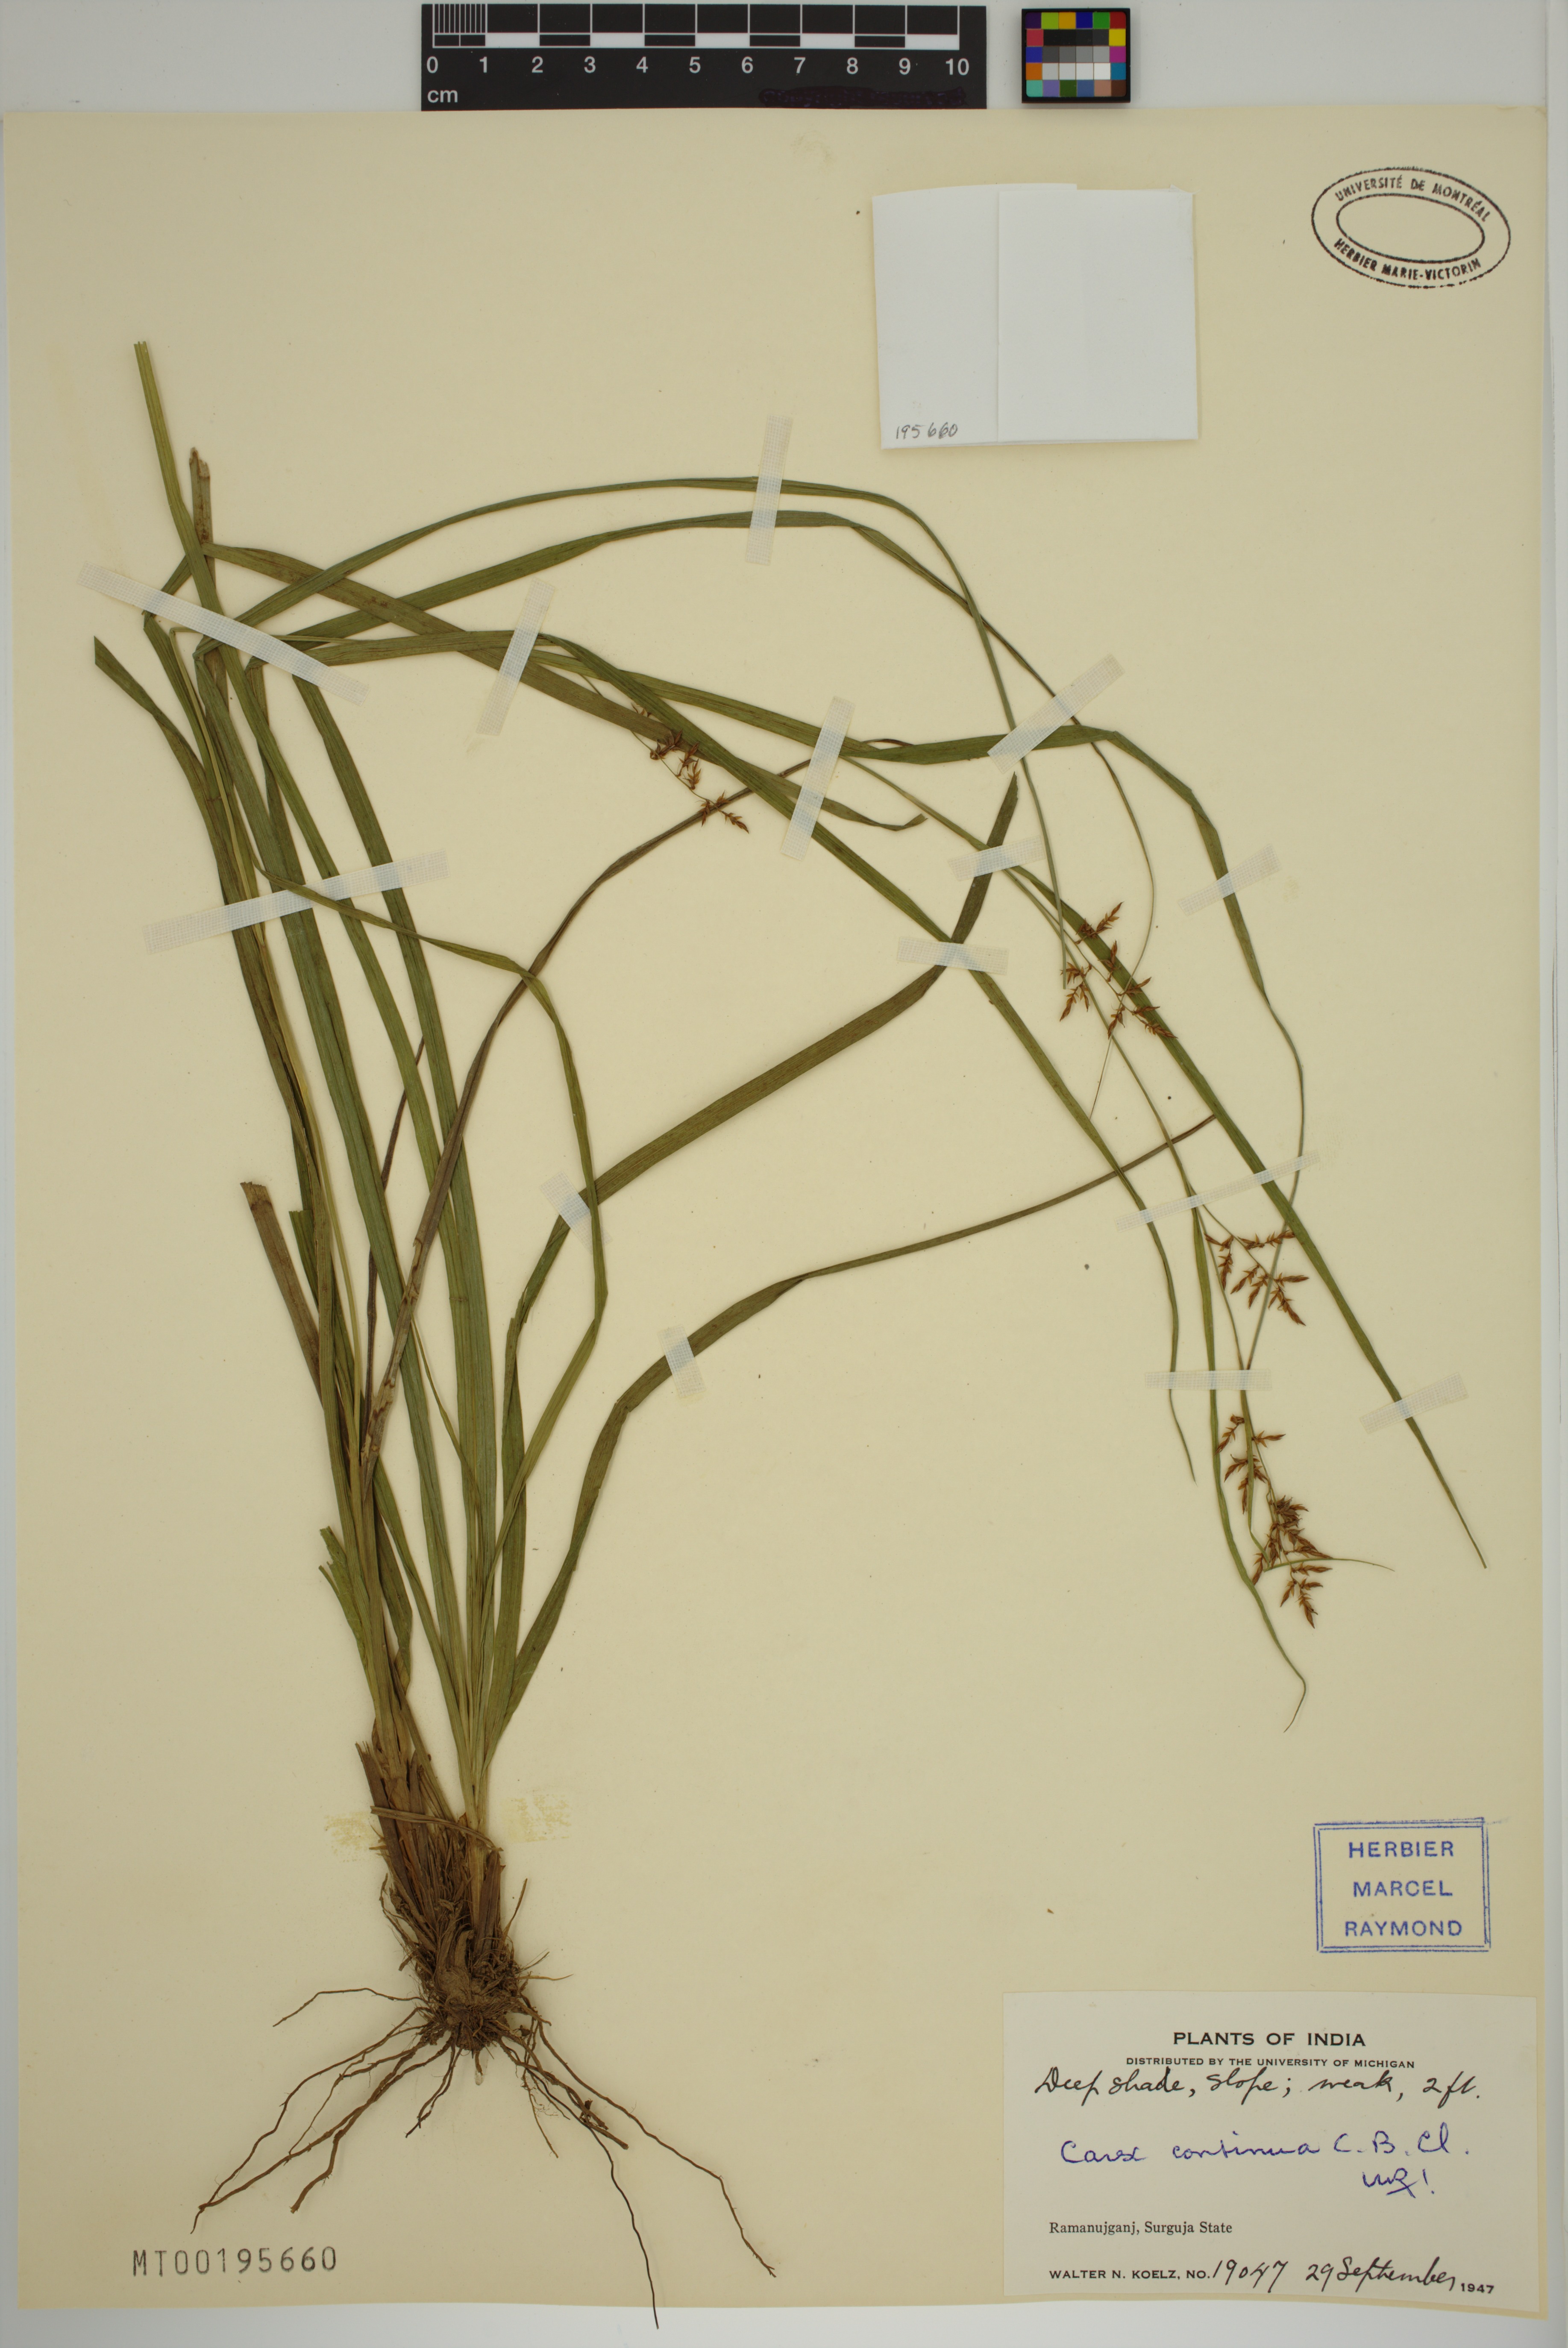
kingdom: Plantae
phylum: Tracheophyta
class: Liliopsida
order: Poales
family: Cyperaceae
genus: Carex
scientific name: Carex continua
